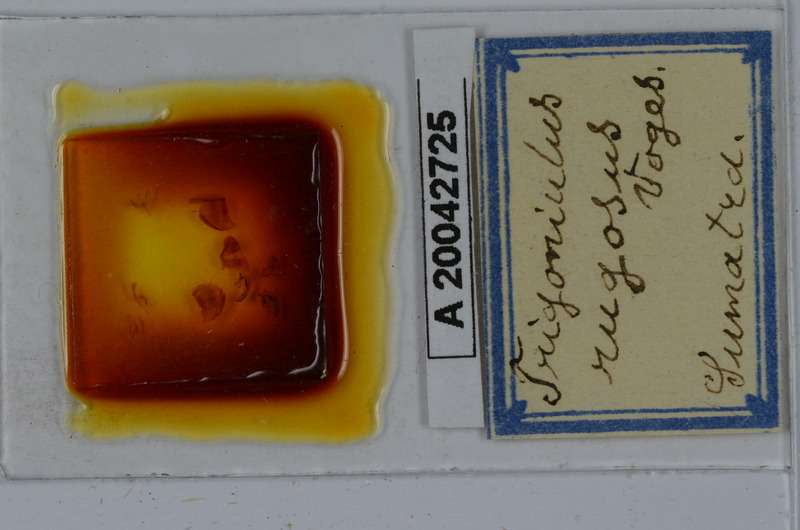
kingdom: Animalia
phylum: Arthropoda
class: Diplopoda
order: Spirobolida
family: Pachybolidae
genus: Trigoniulus
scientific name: Trigoniulus corallinus
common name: Millipede
